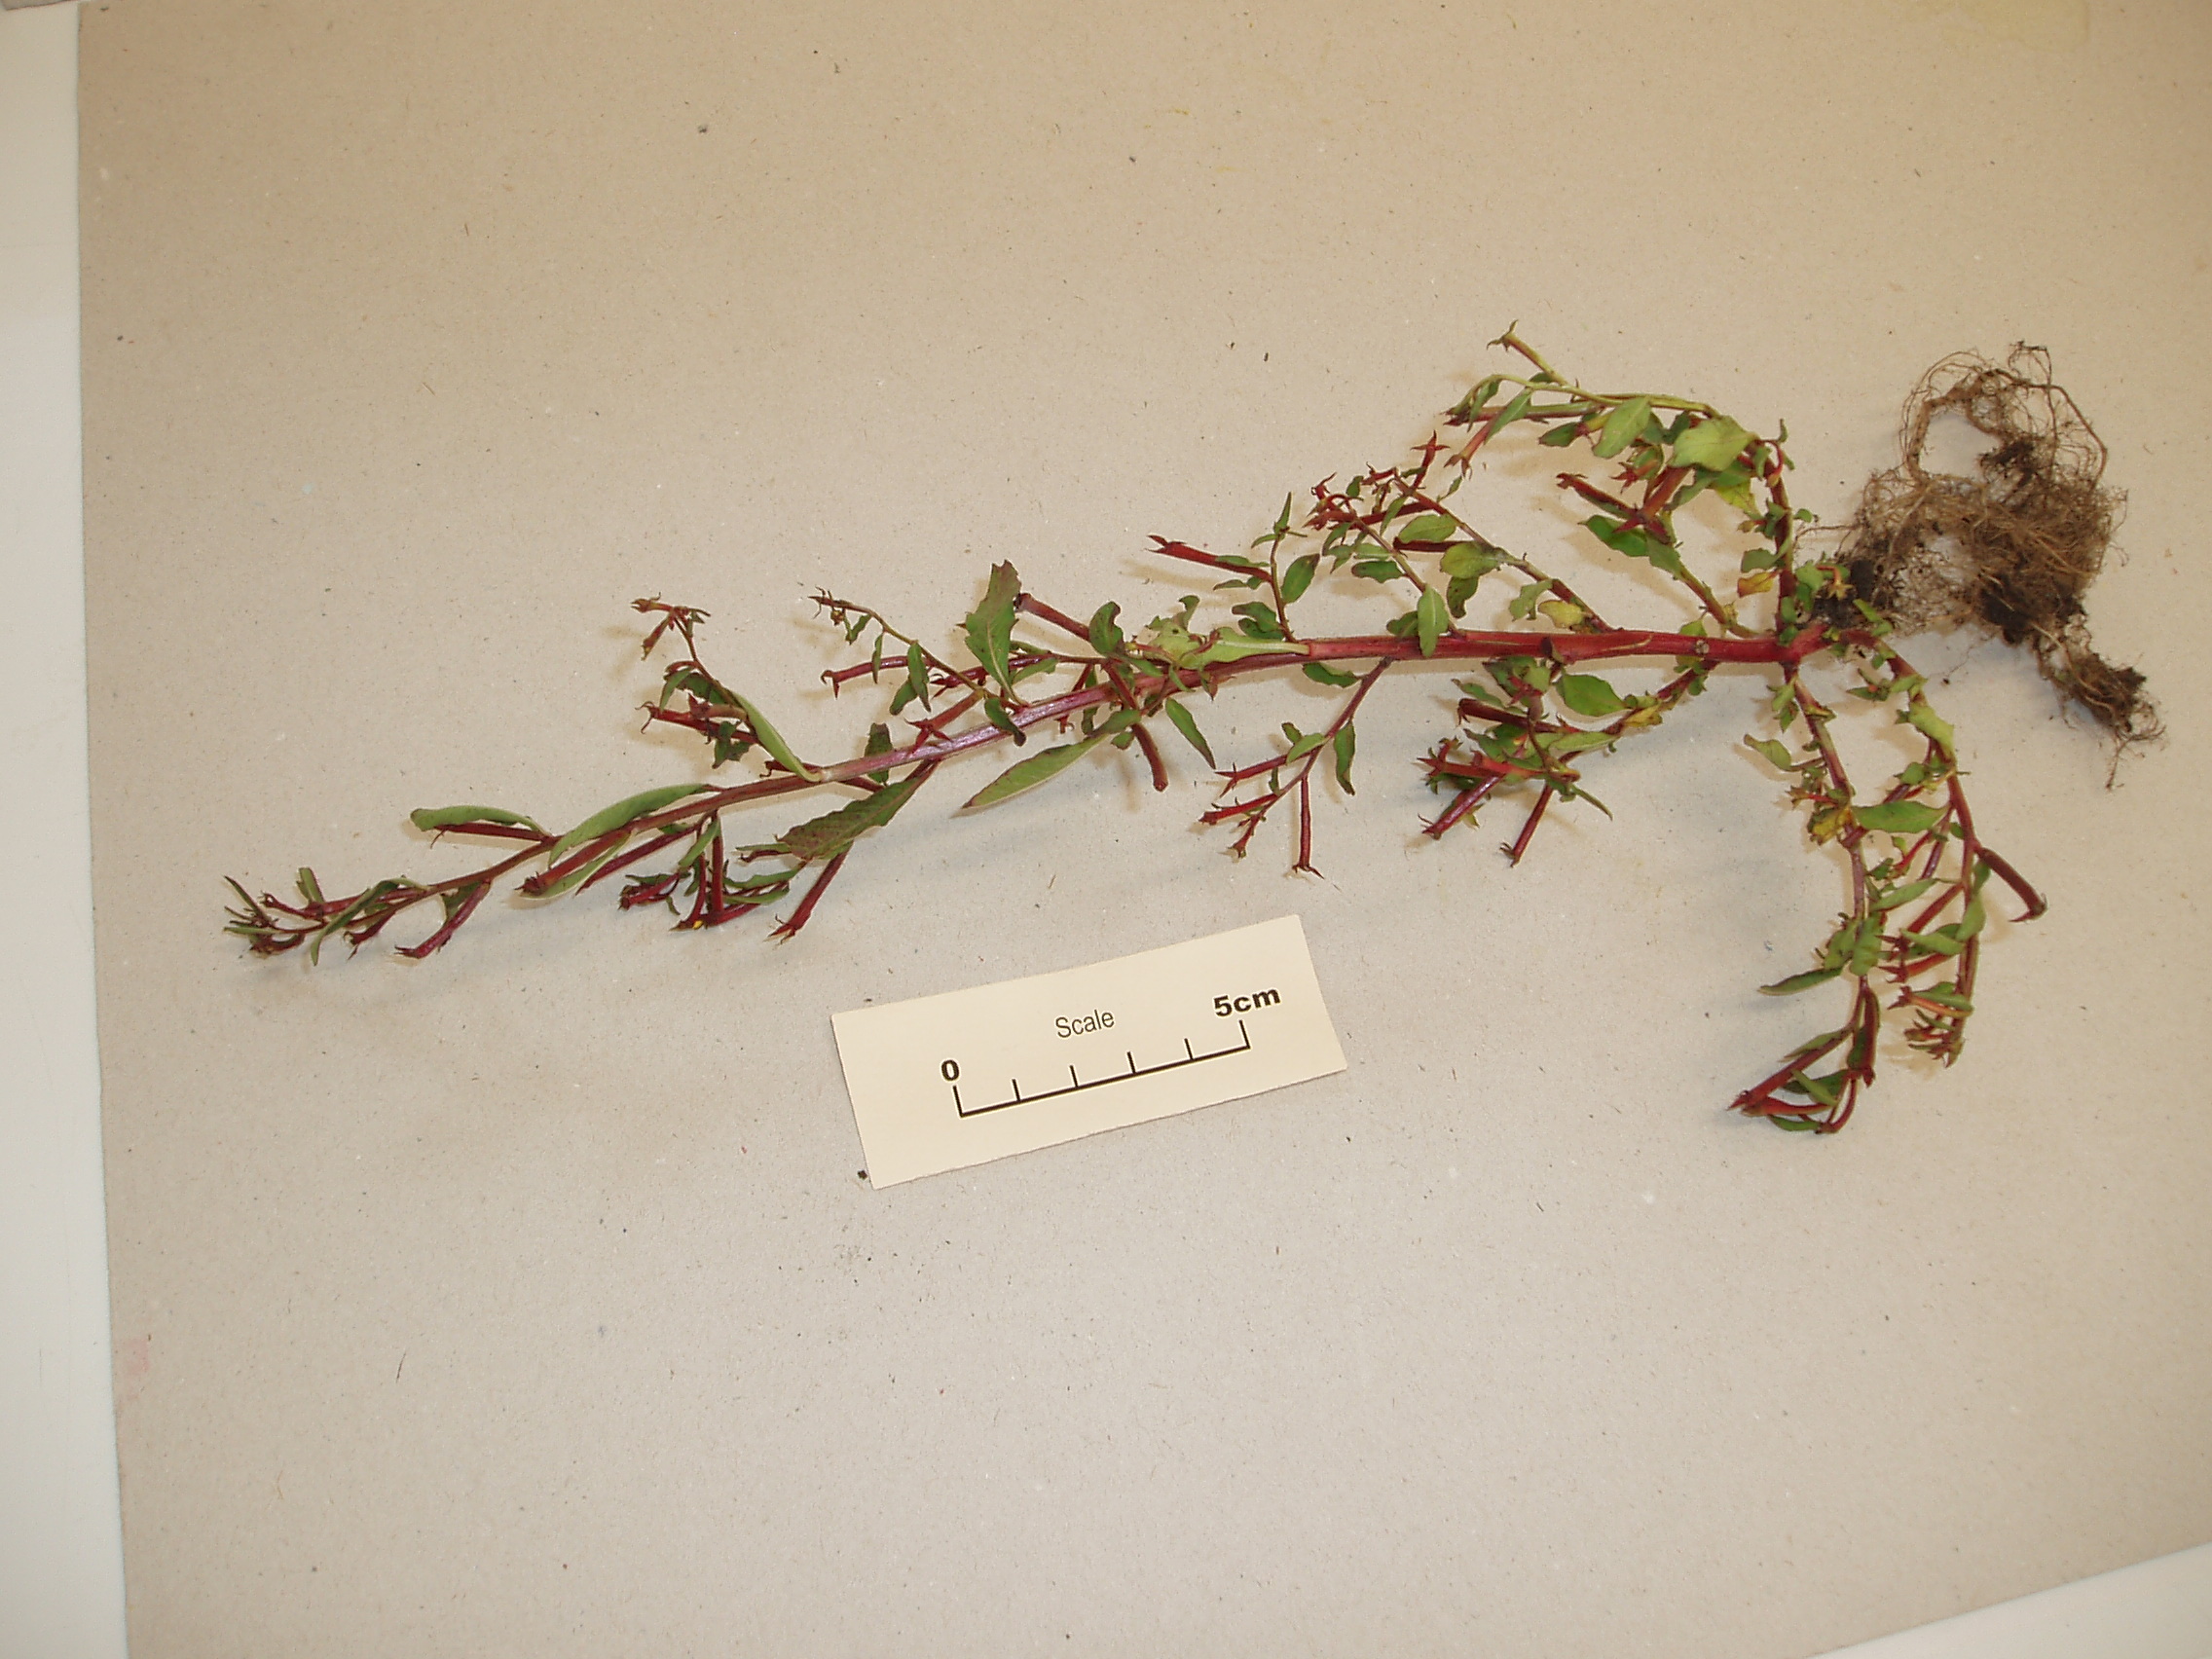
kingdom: Plantae
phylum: Tracheophyta
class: Magnoliopsida
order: Myrtales
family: Onagraceae
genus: Ludwigia
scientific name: Ludwigia hyssopifolia
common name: Linear leaf water primrose
